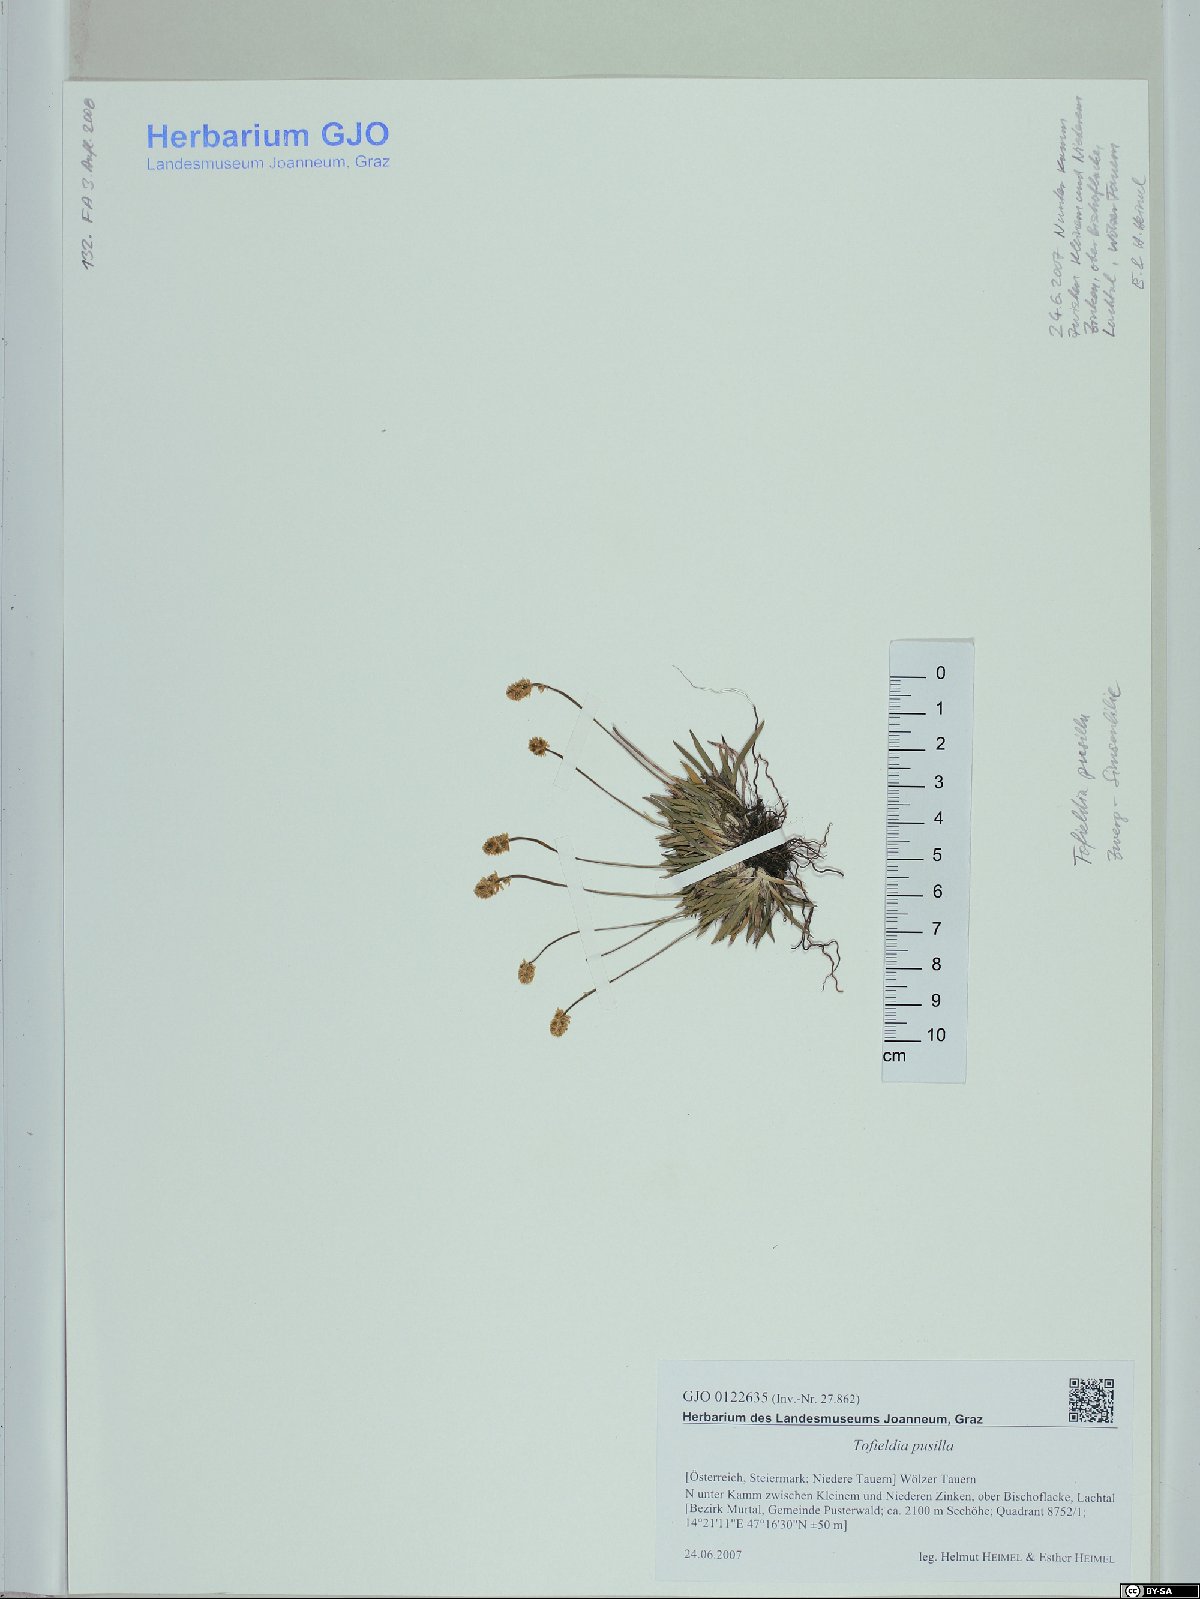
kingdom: Plantae
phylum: Tracheophyta
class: Liliopsida
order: Alismatales
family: Tofieldiaceae
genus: Tofieldia
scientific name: Tofieldia pusilla
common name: Scottish false asphodel
